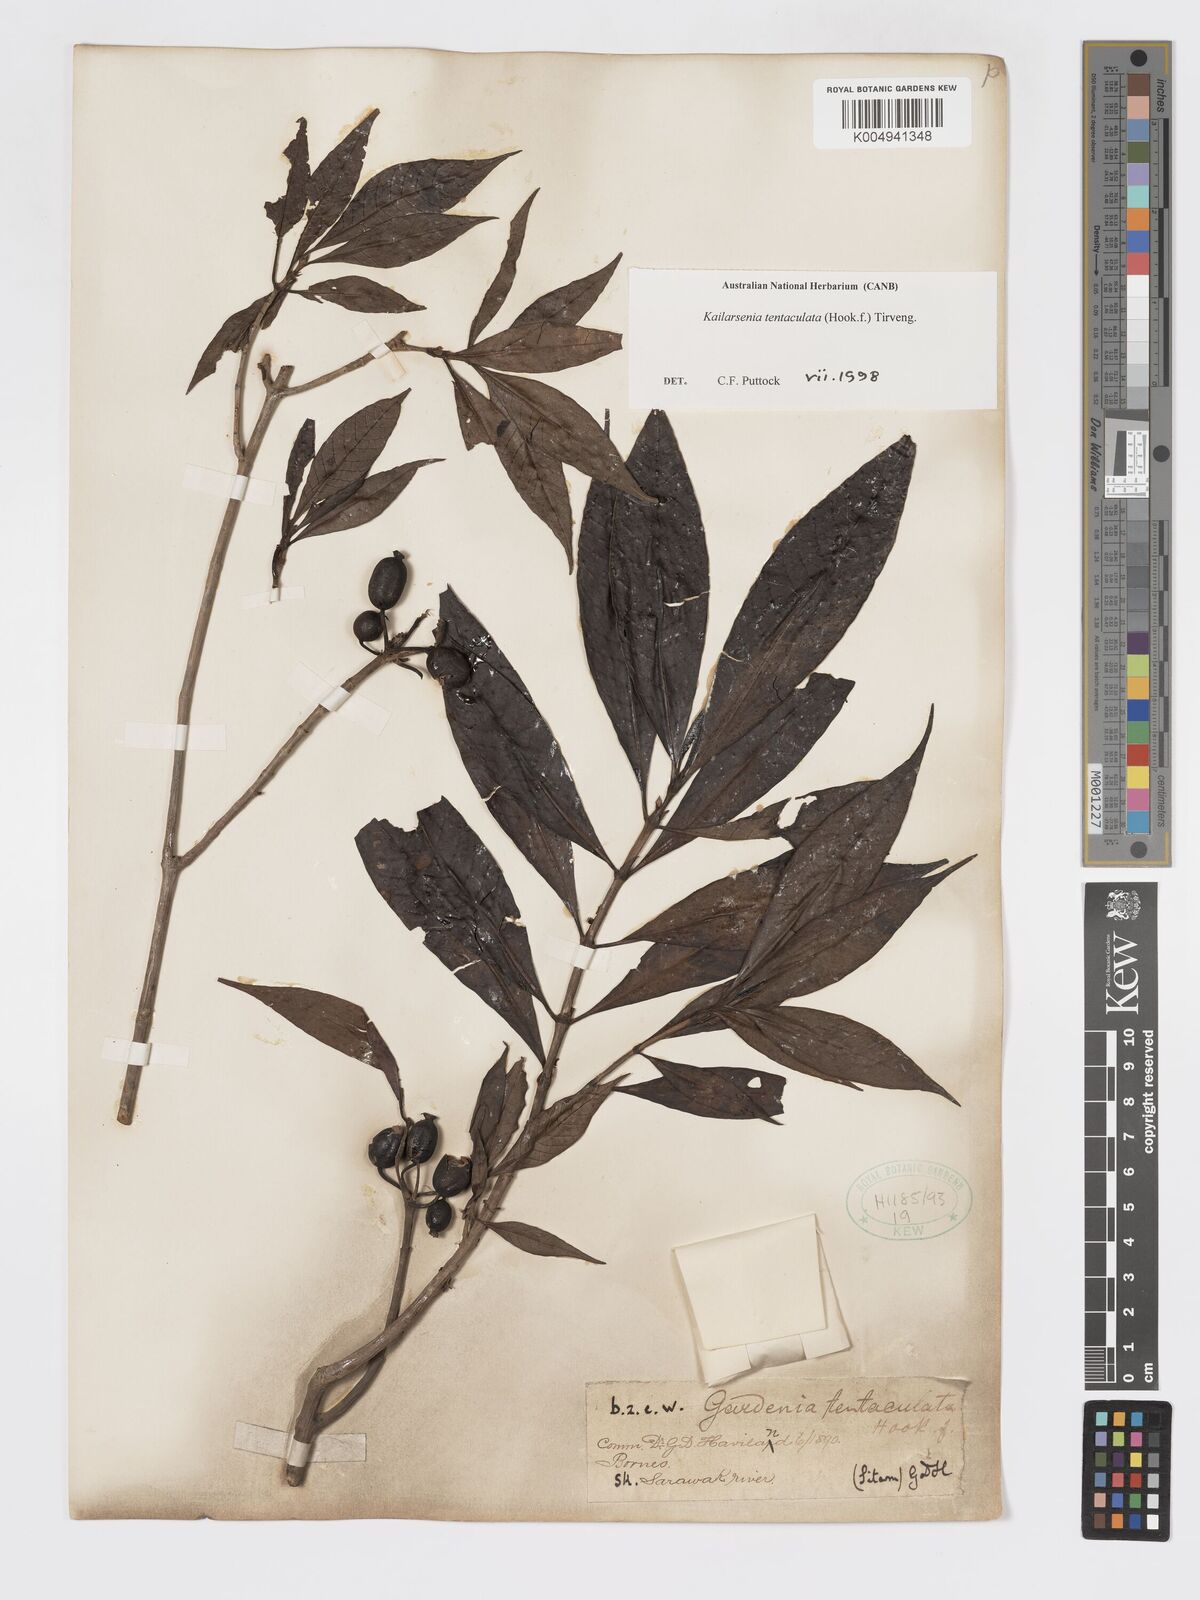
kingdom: Plantae
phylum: Tracheophyta
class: Magnoliopsida
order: Gentianales
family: Rubiaceae
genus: Kailarsenia
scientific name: Kailarsenia tentaculata
